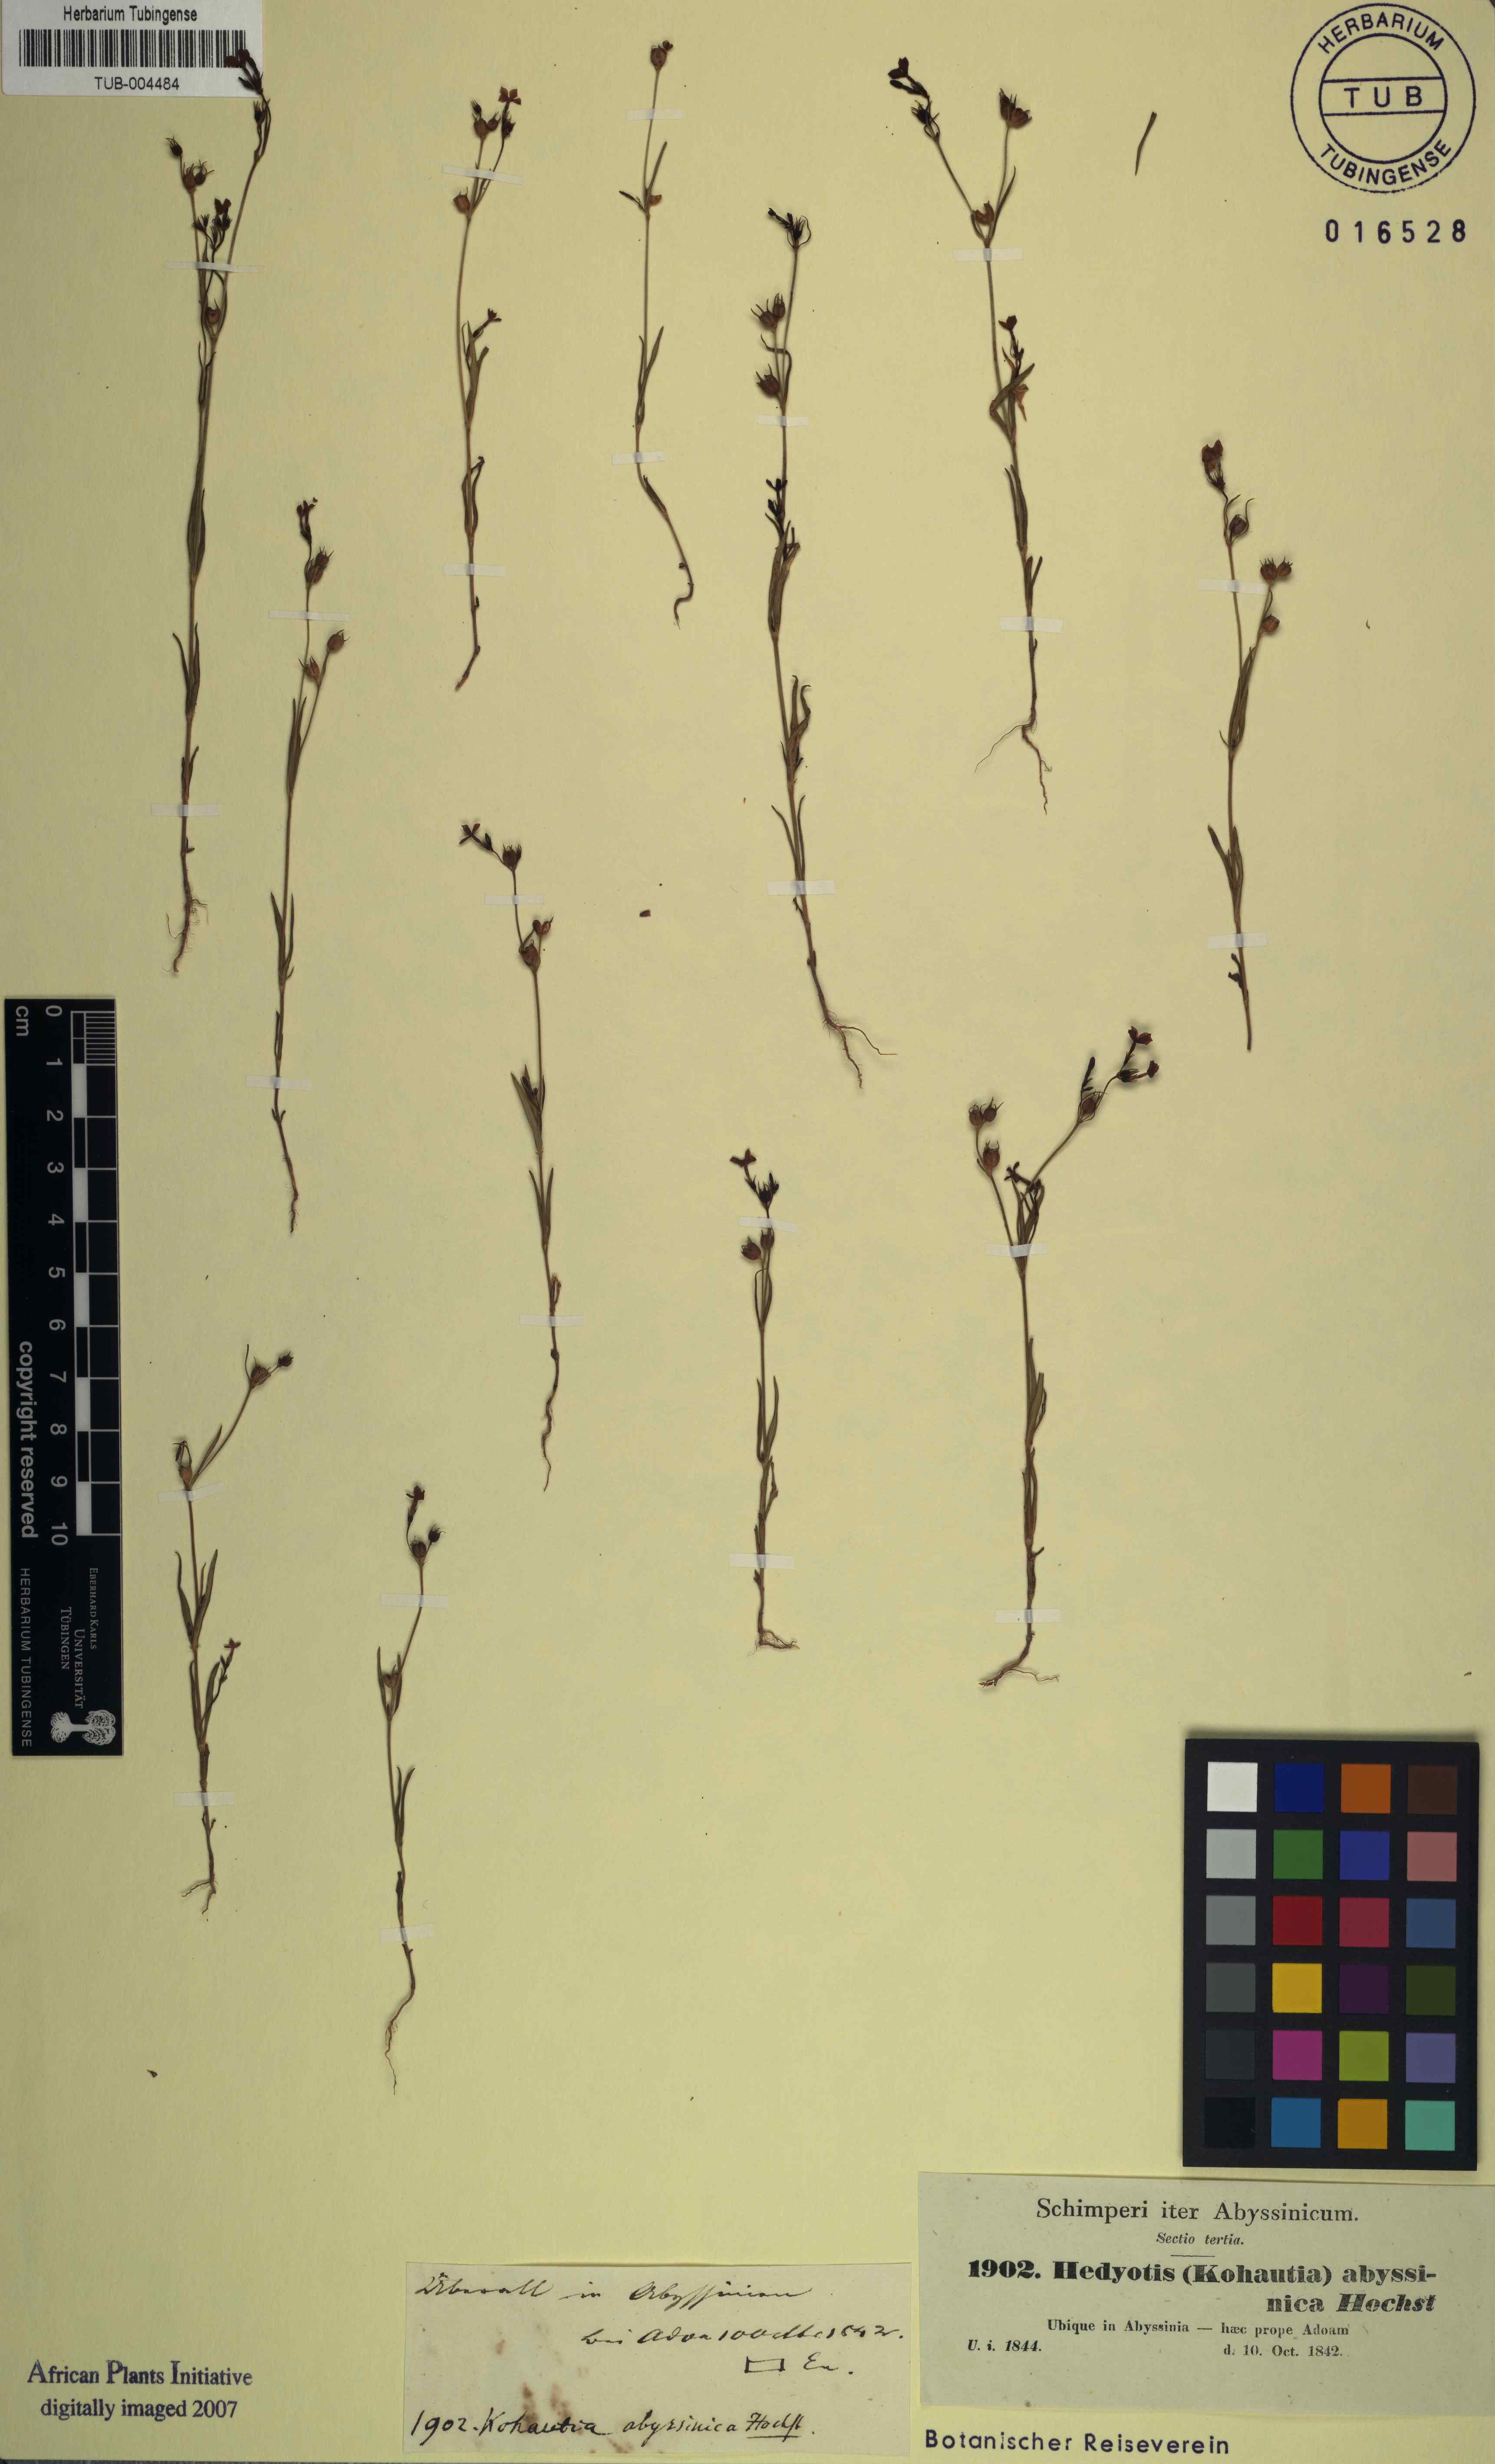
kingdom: Plantae
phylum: Tracheophyta
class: Magnoliopsida
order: Gentianales
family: Rubiaceae
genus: Kohautia
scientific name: Kohautia coccinea
